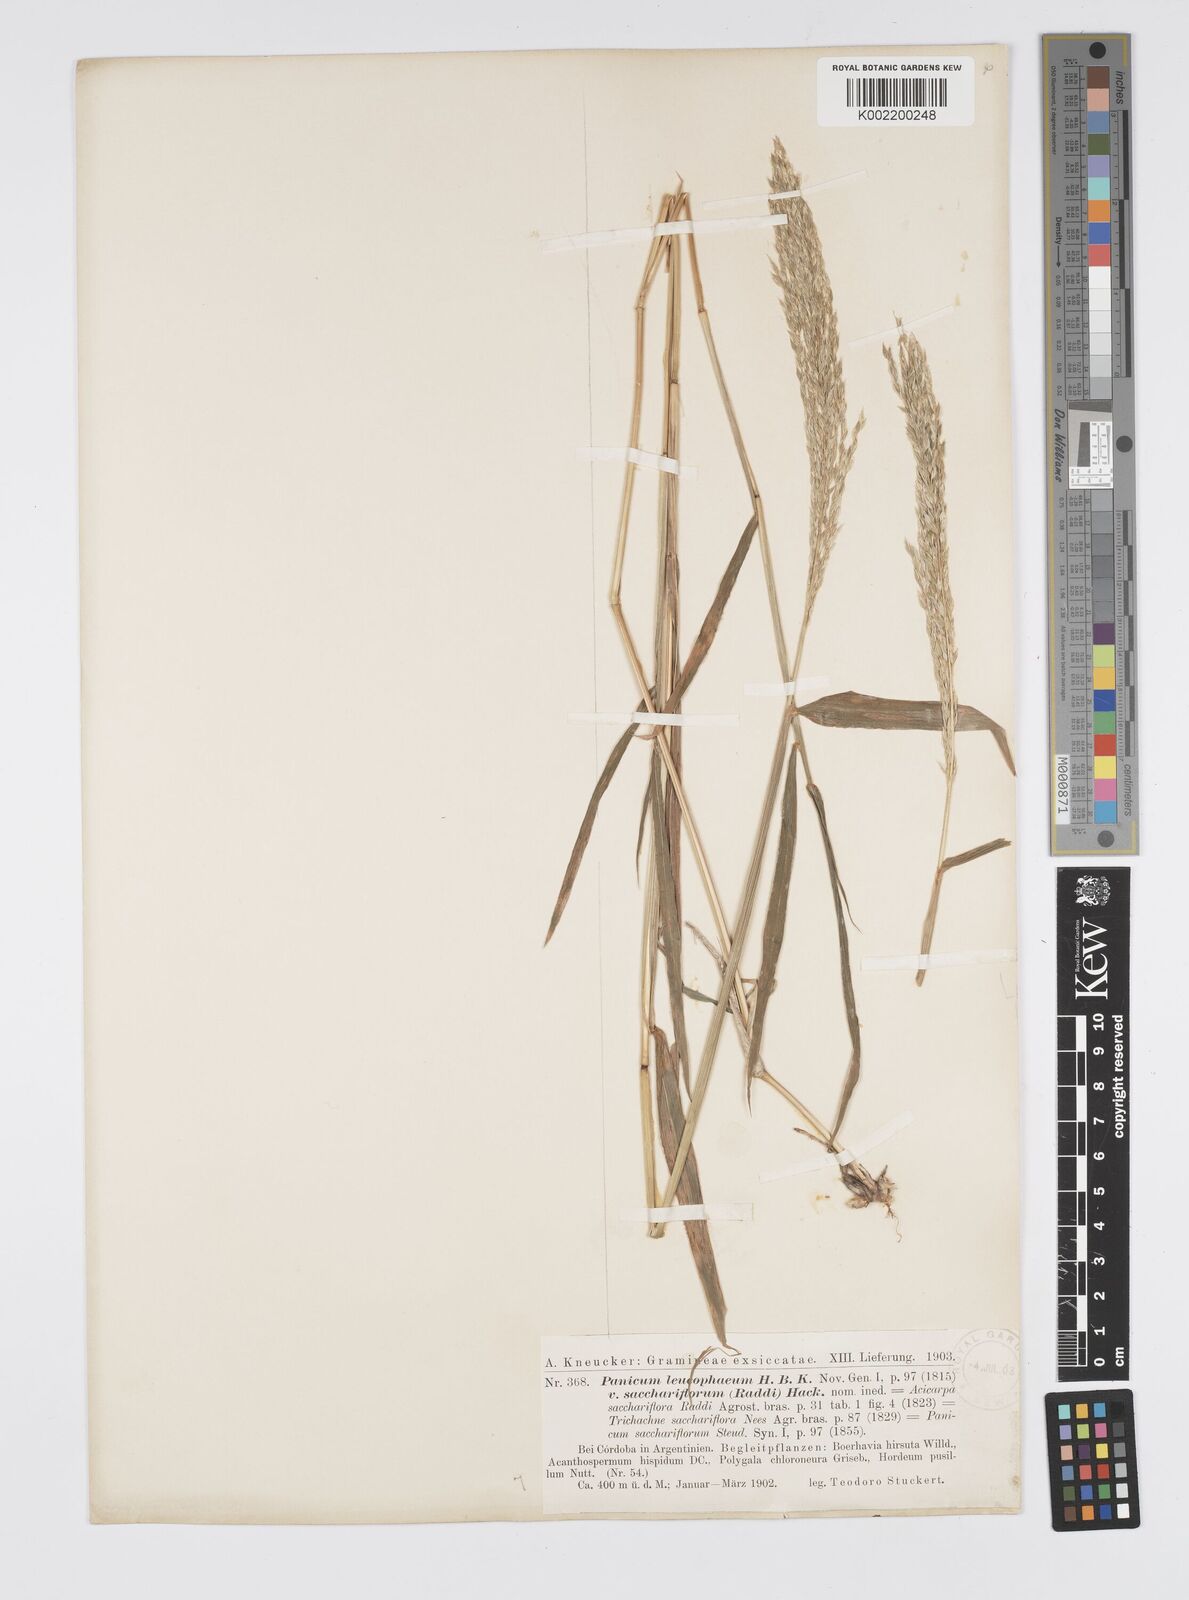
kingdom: Plantae
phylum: Tracheophyta
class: Liliopsida
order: Poales
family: Poaceae
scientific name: Poaceae
